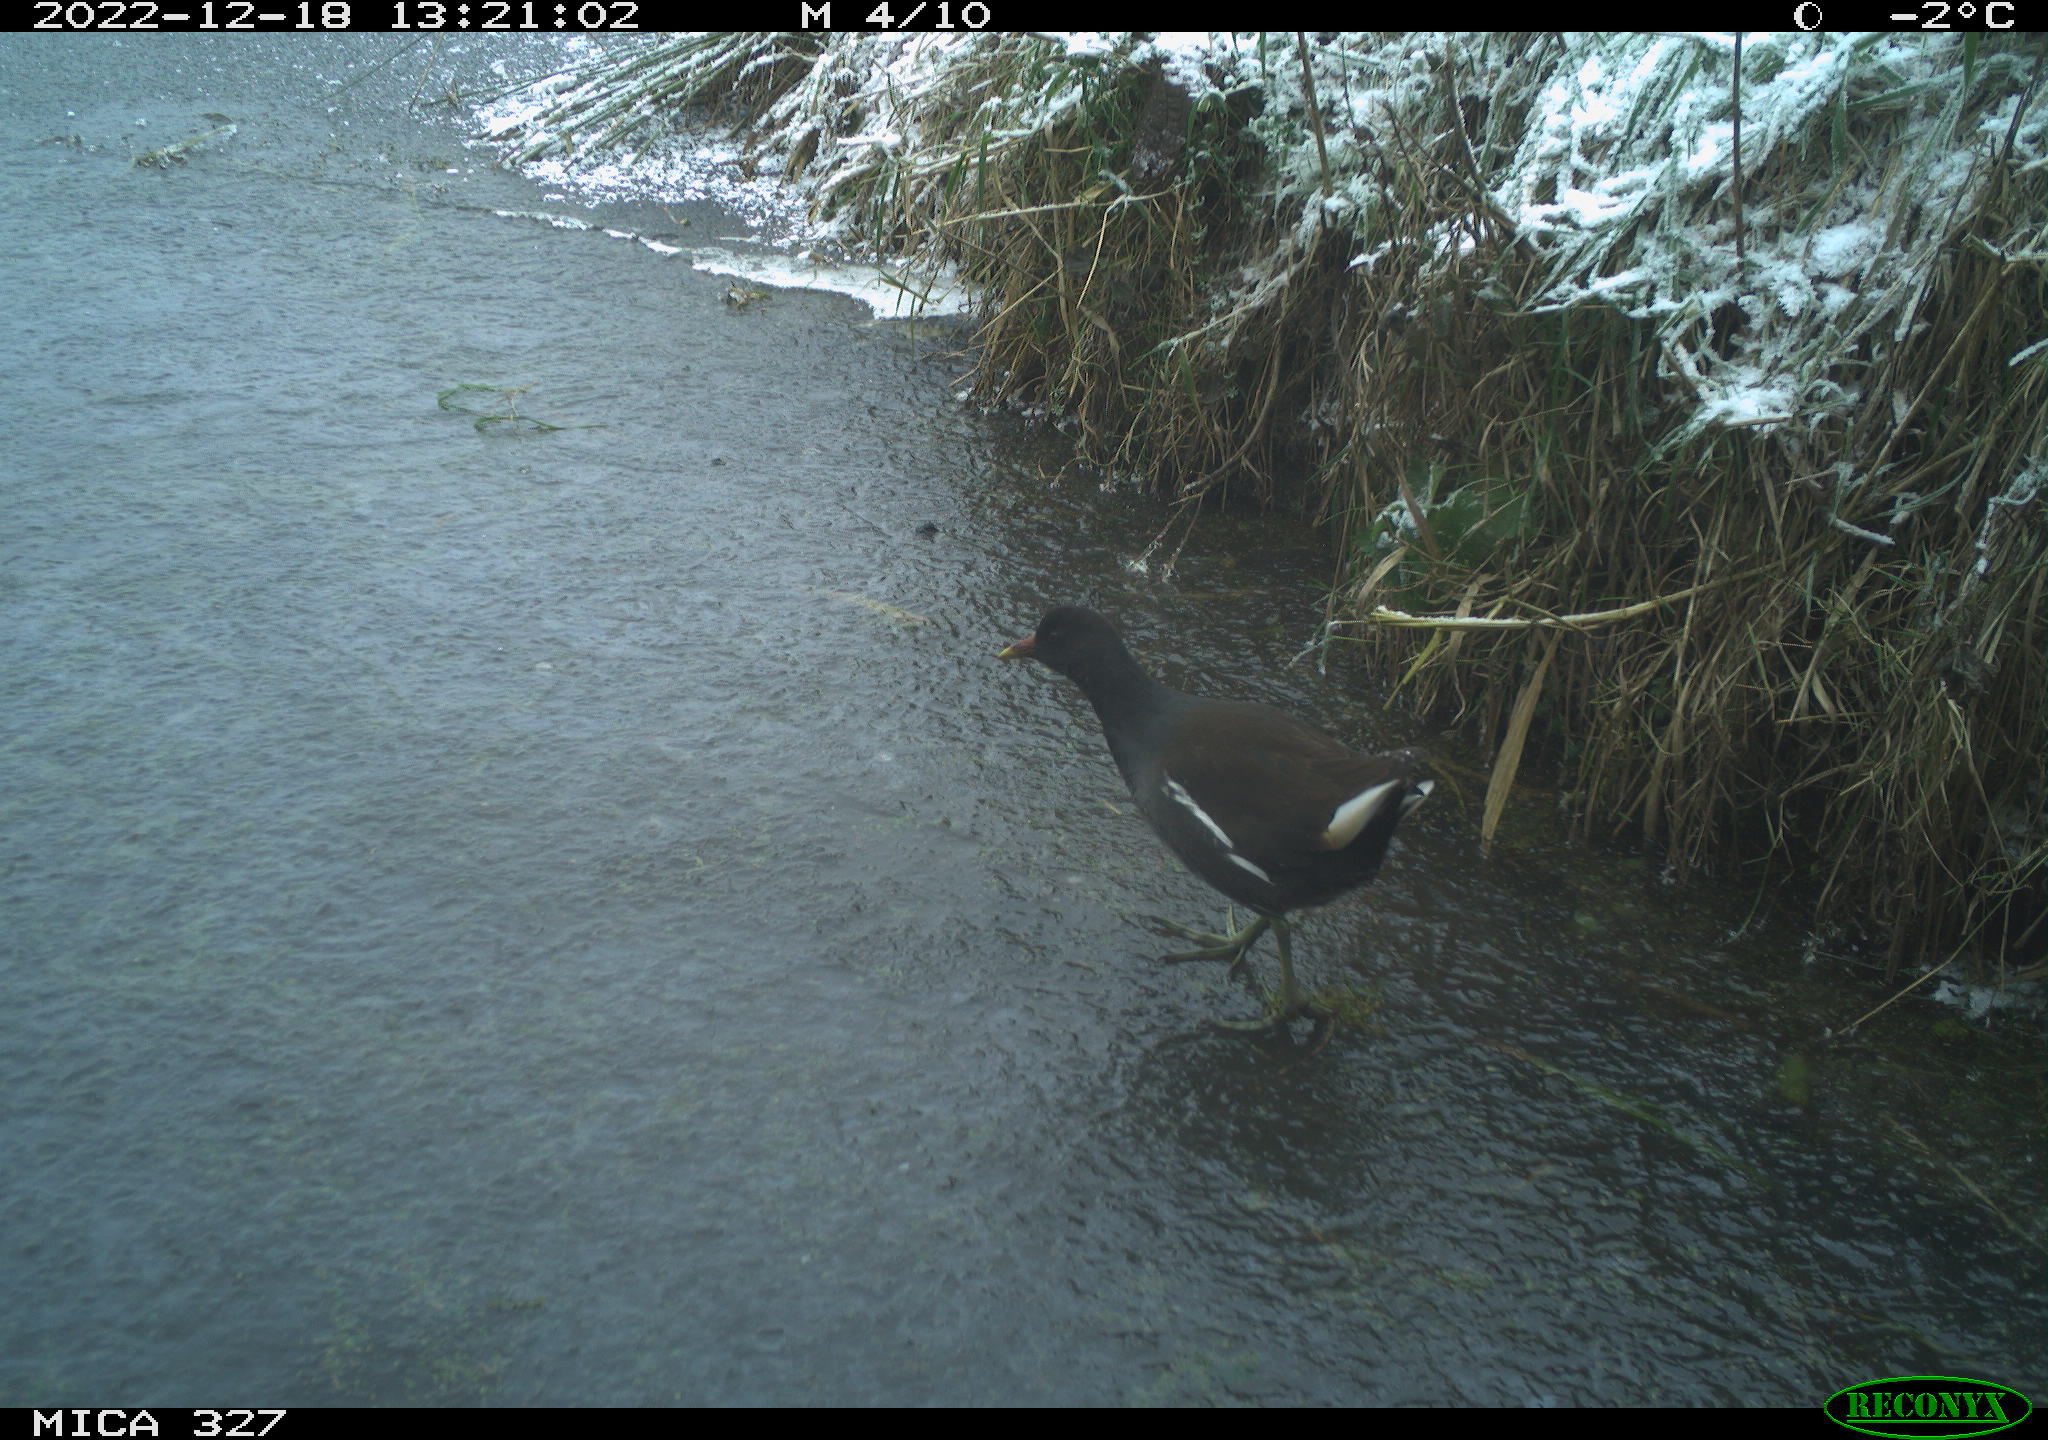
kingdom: Animalia
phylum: Chordata
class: Aves
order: Gruiformes
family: Rallidae
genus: Gallinula
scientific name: Gallinula chloropus
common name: Common moorhen
